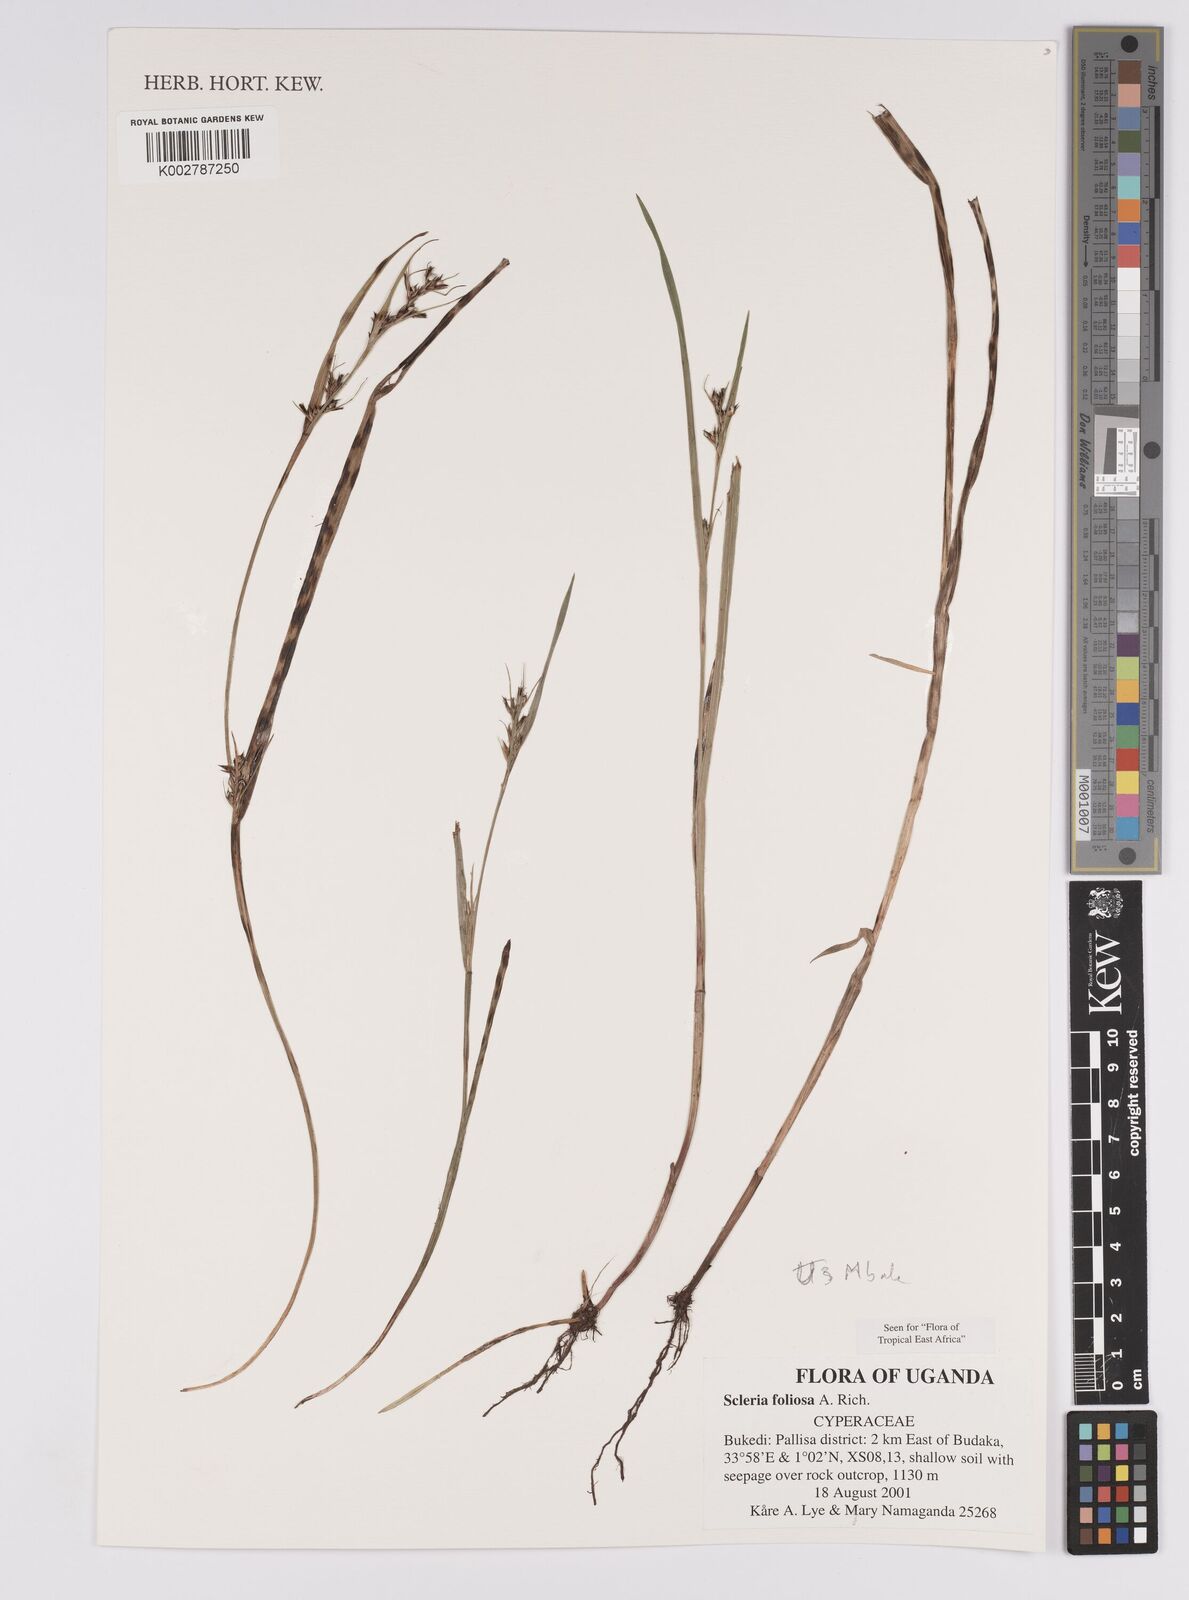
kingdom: Plantae
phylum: Tracheophyta
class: Liliopsida
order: Poales
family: Cyperaceae
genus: Scleria
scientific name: Scleria foliosa
